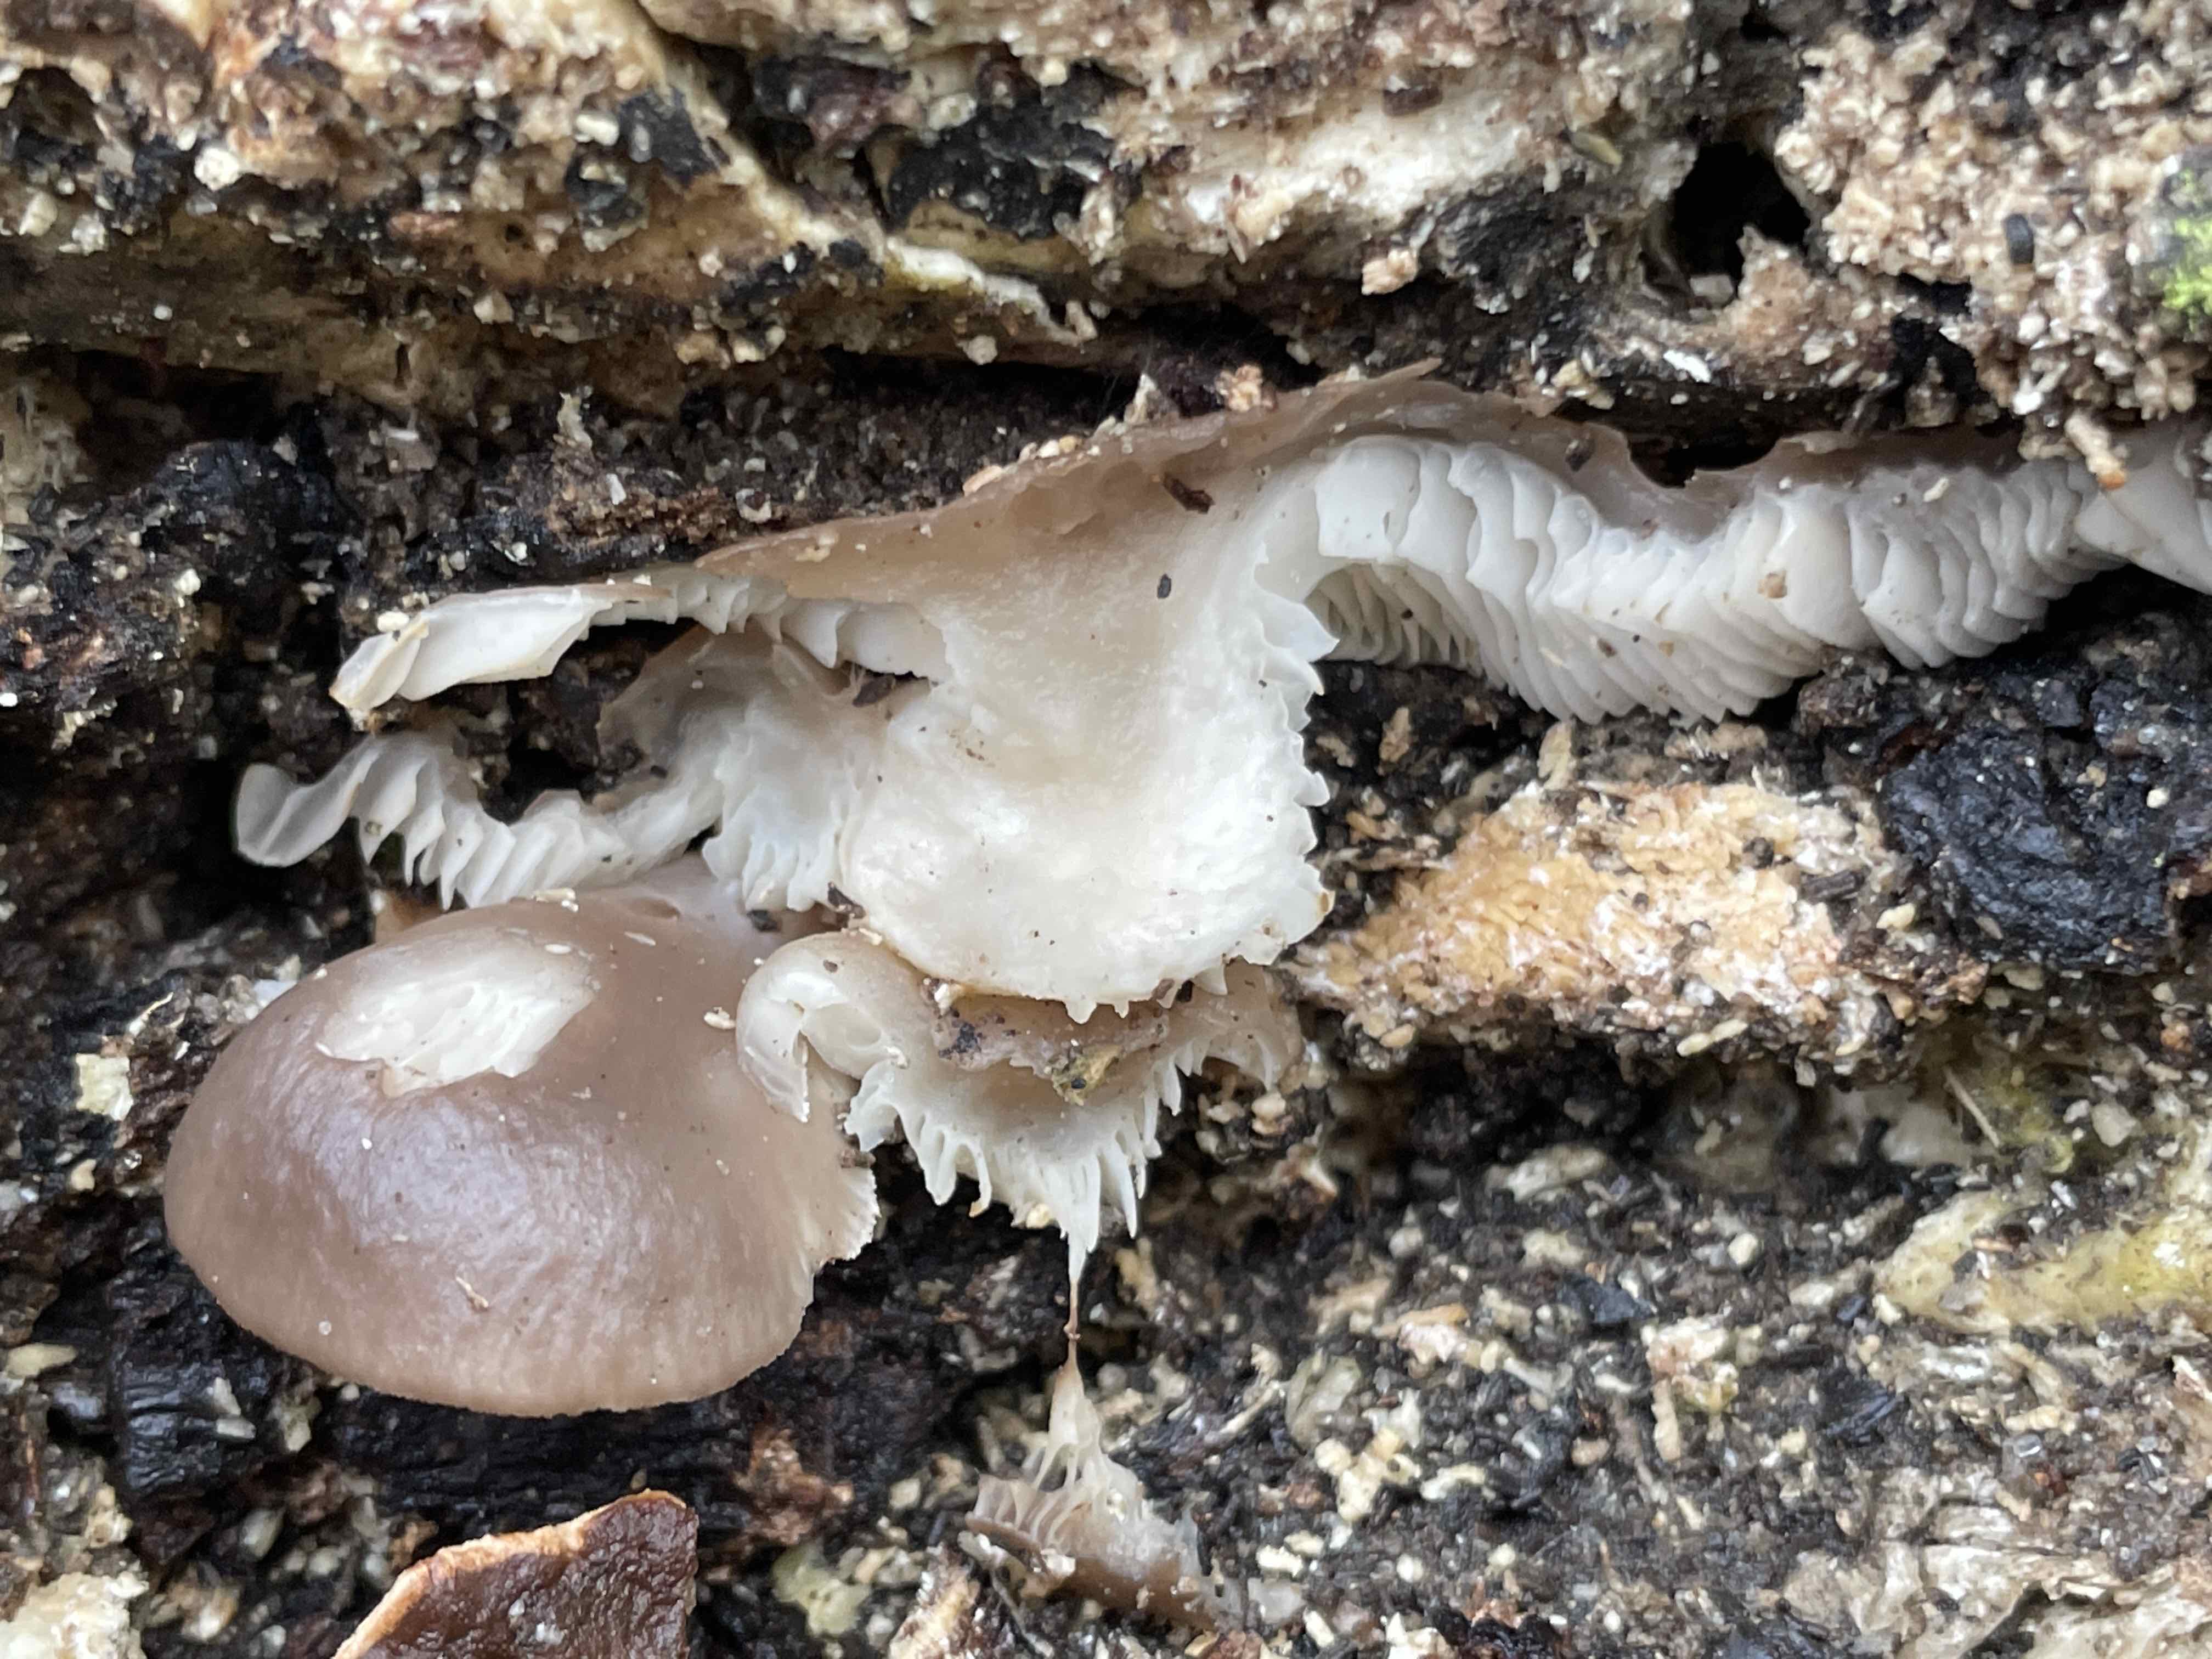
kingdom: Fungi
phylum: Basidiomycota
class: Agaricomycetes
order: Agaricales
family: Pleurotaceae
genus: Pleurotus
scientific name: Pleurotus ostreatus
